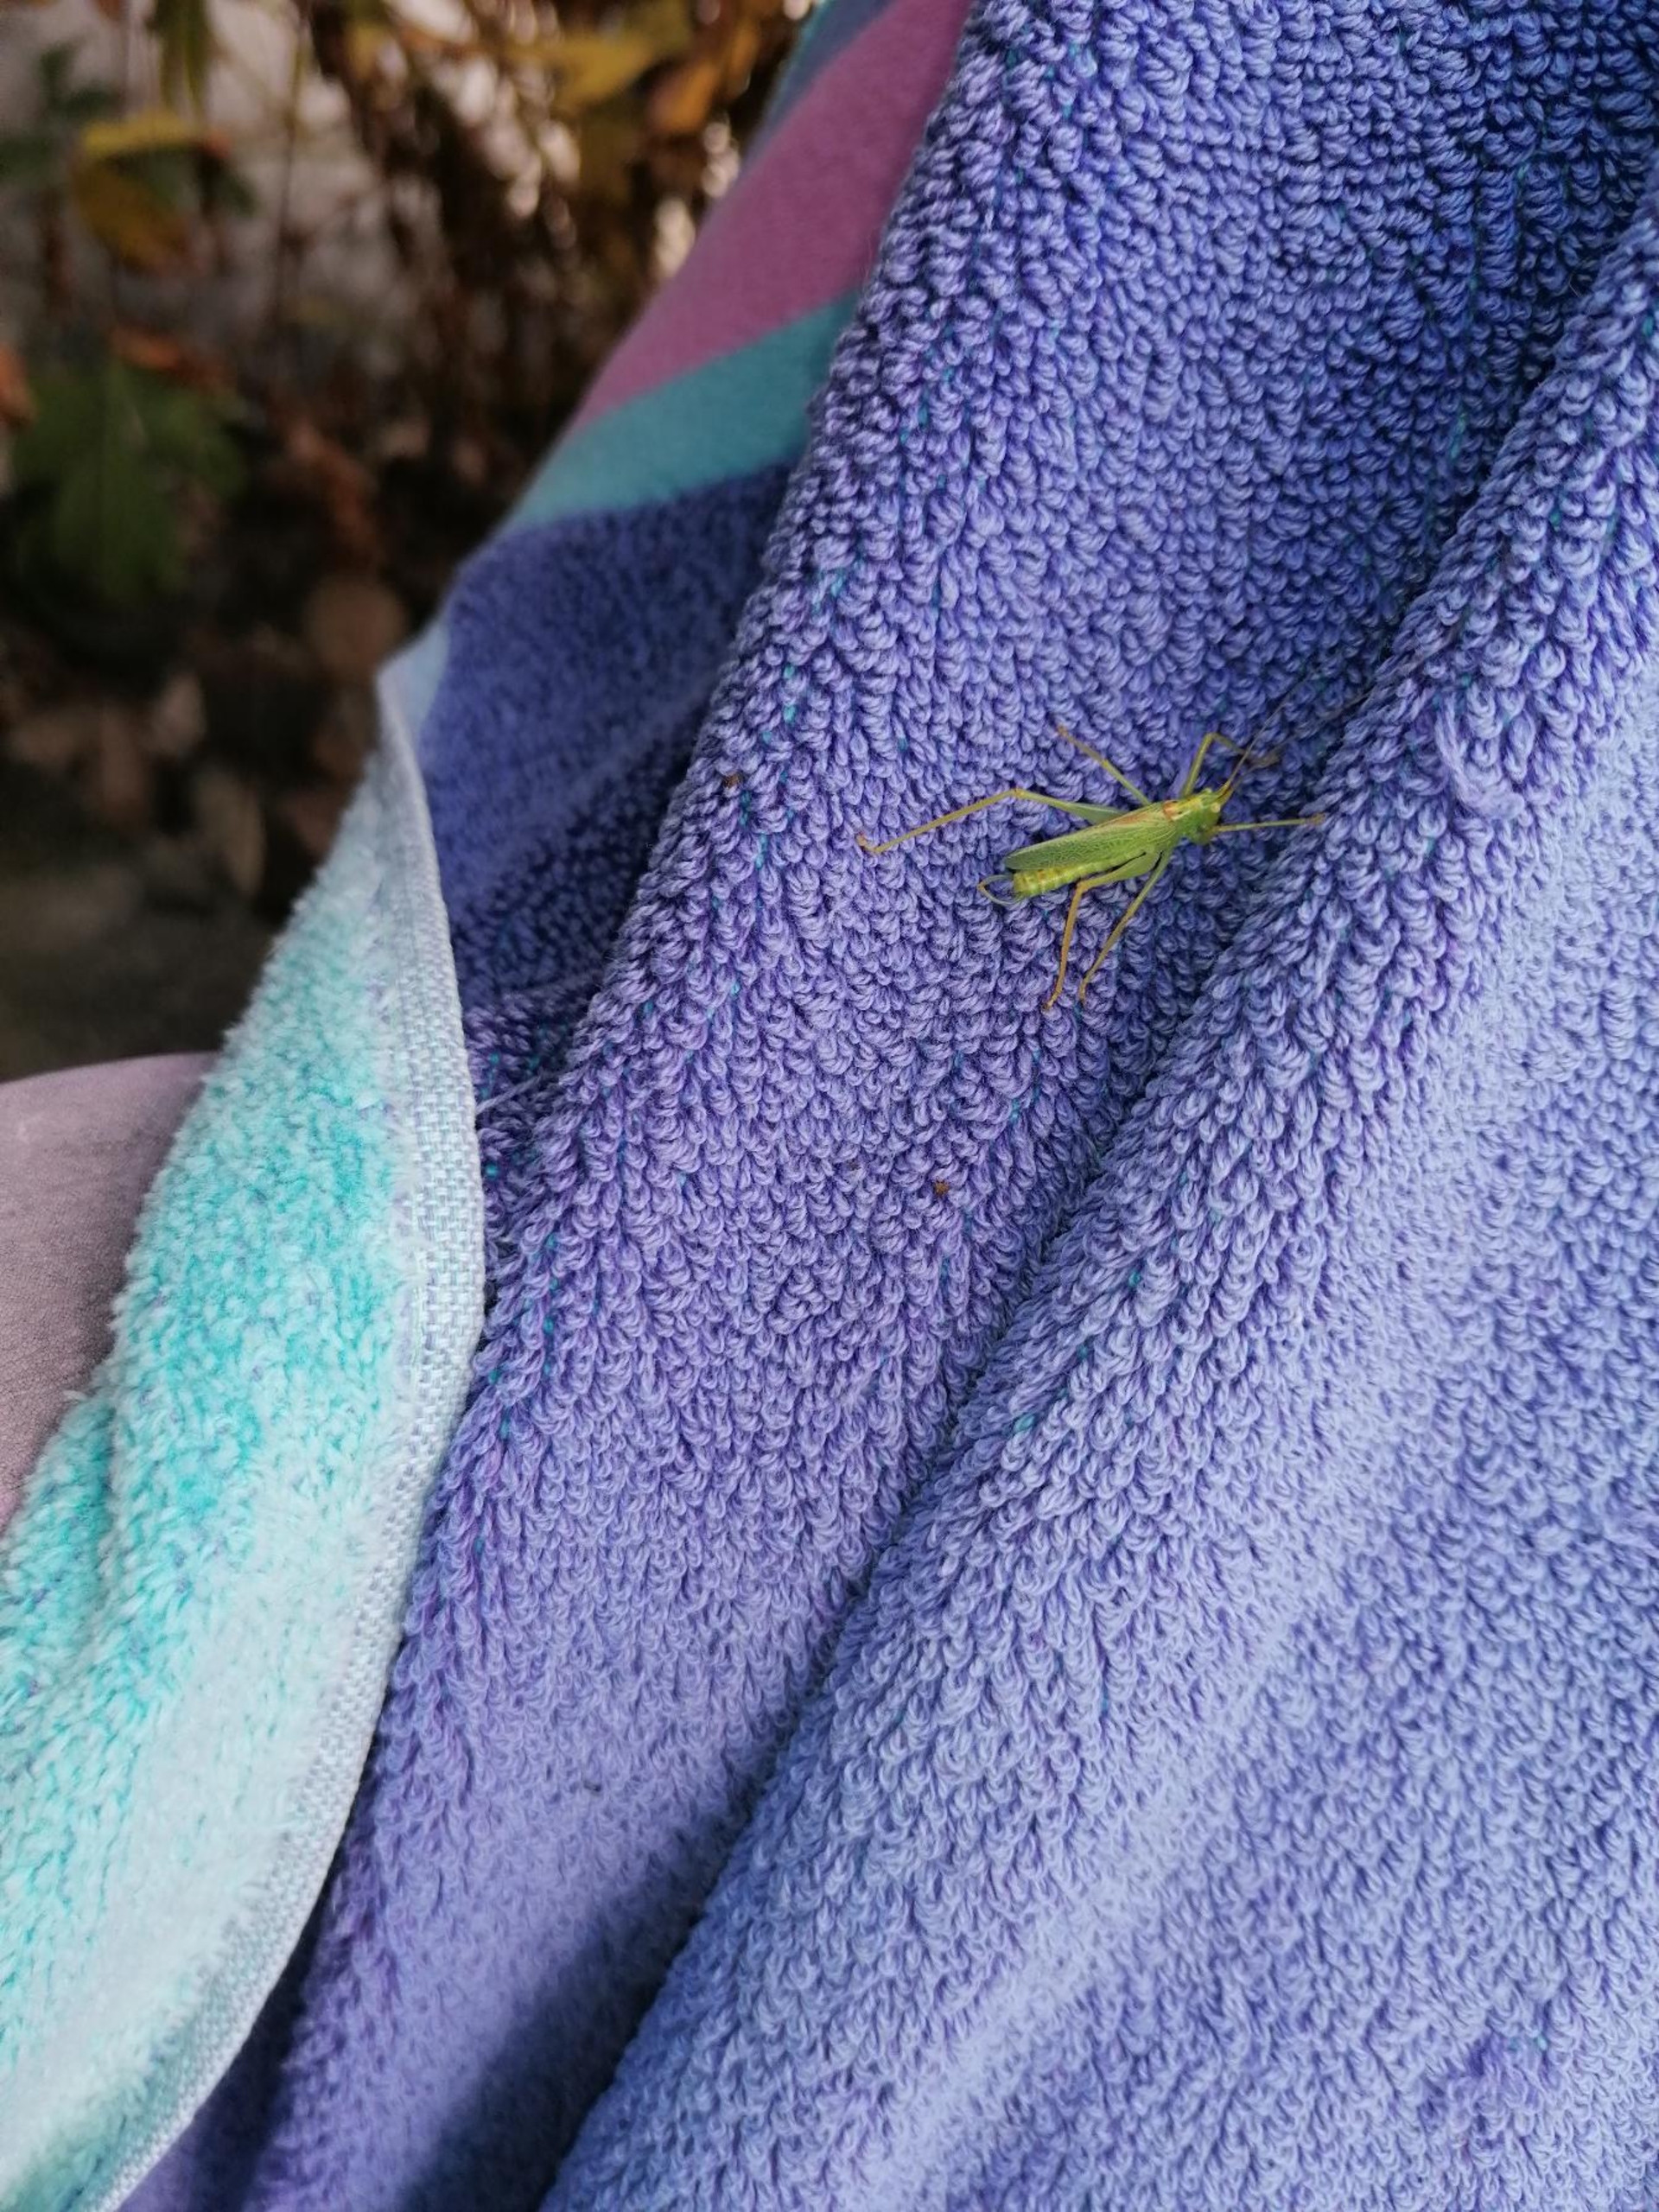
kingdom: Animalia
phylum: Arthropoda
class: Insecta
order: Orthoptera
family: Tettigoniidae
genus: Meconema
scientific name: Meconema thalassinum
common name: Egegræshoppe
